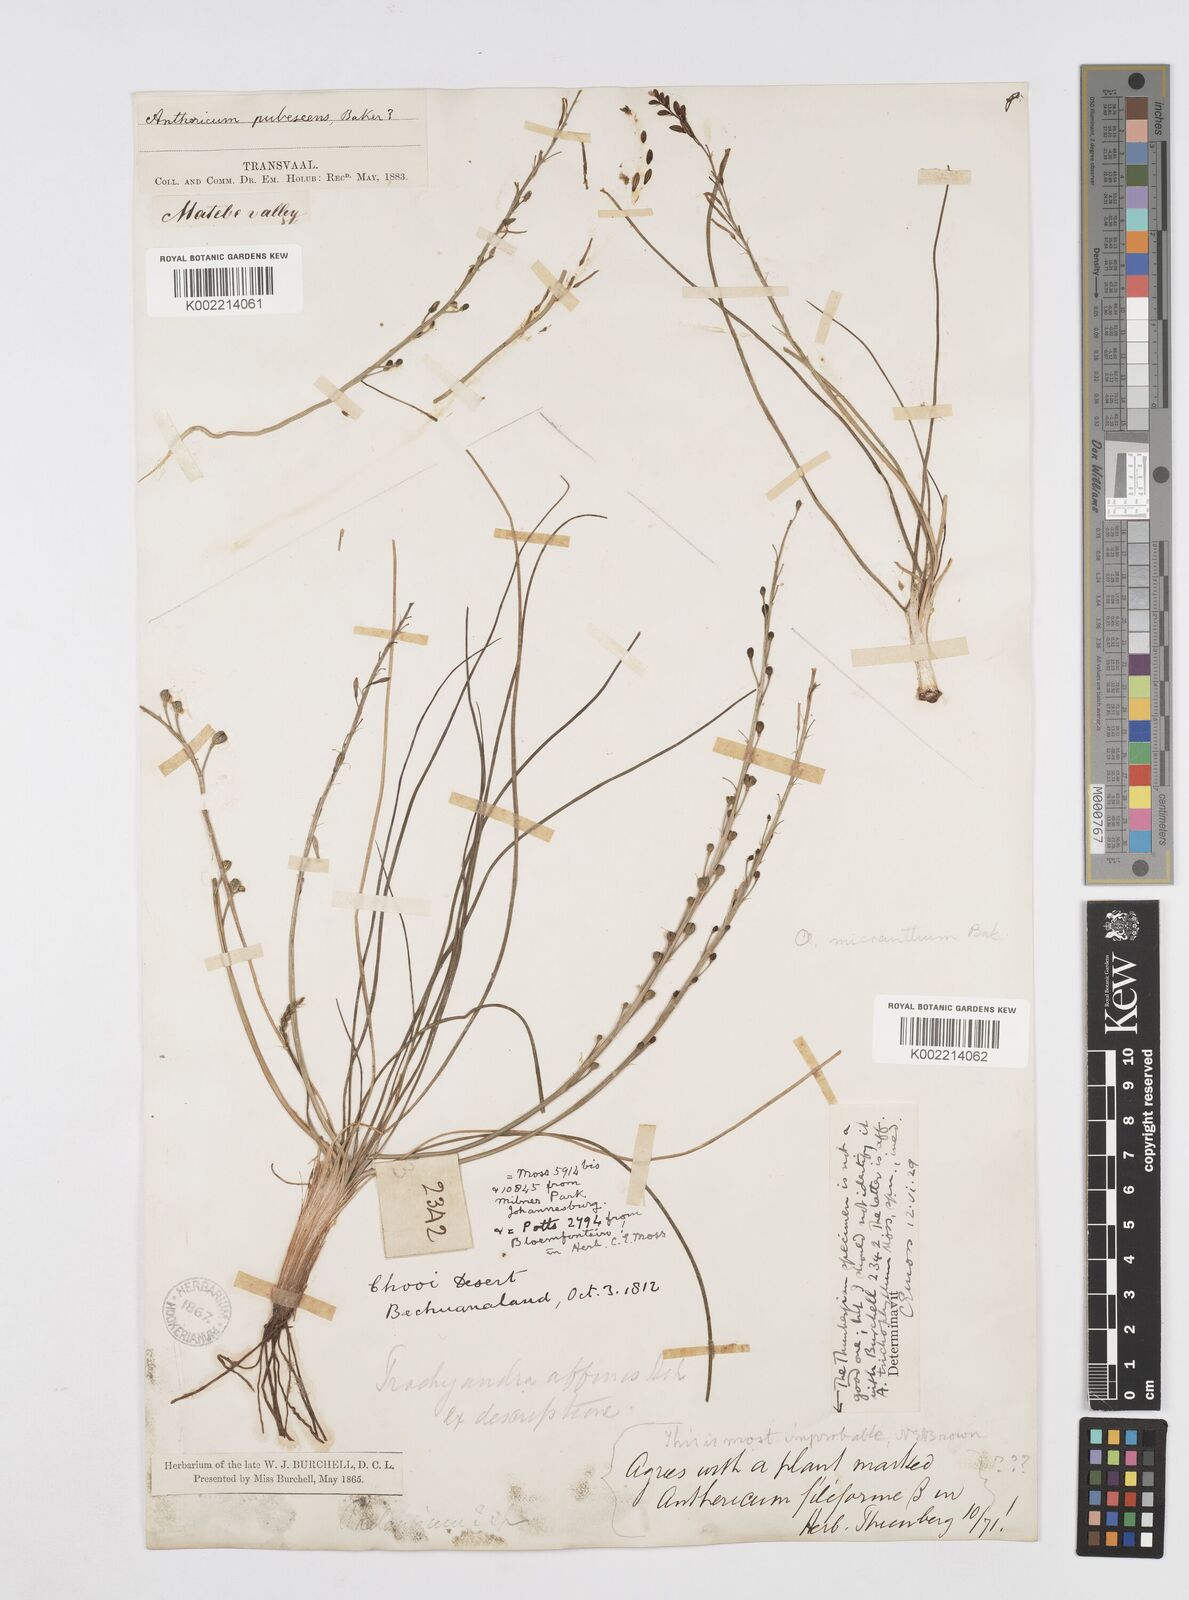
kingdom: Plantae
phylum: Tracheophyta
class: Liliopsida
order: Asparagales
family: Asphodelaceae
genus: Trachyandra
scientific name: Trachyandra
